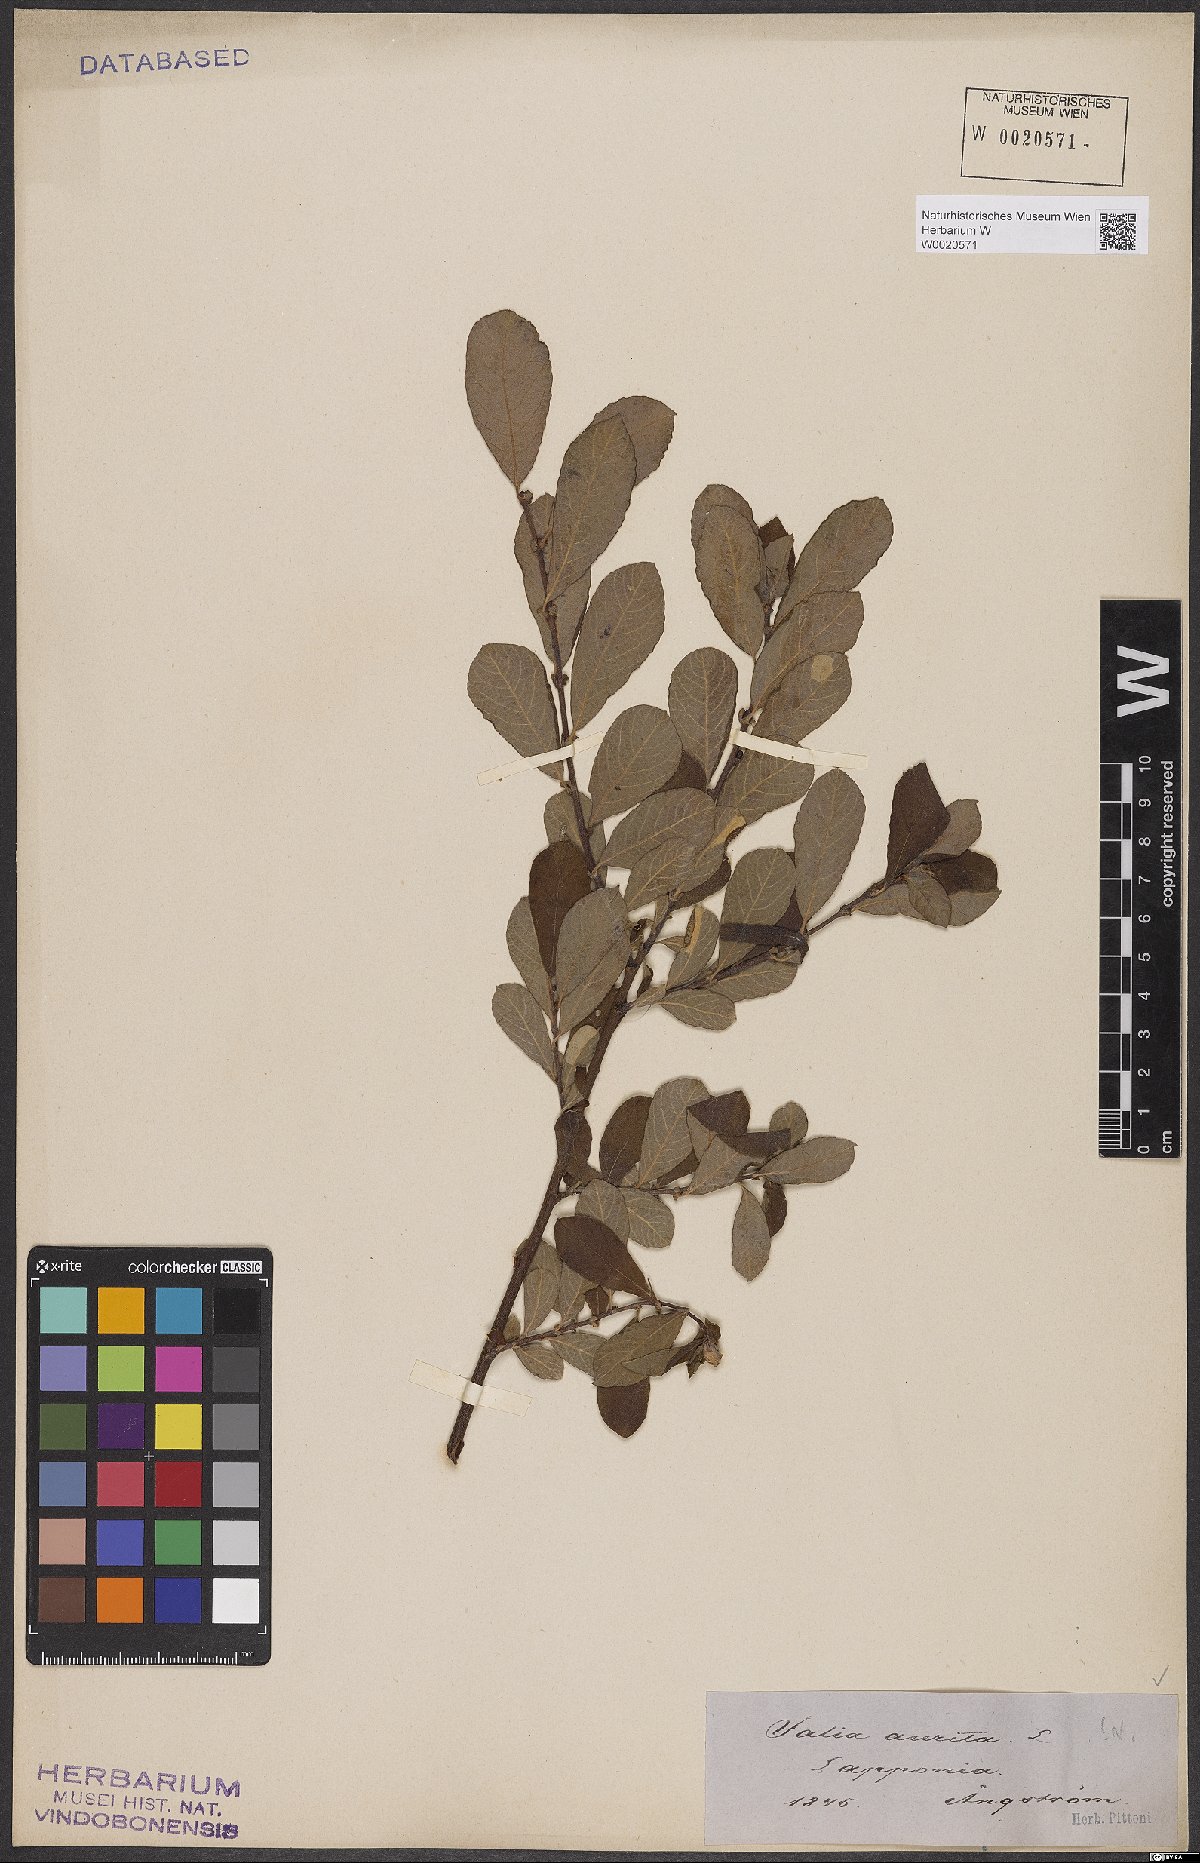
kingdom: Plantae
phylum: Tracheophyta
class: Magnoliopsida
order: Malpighiales
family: Salicaceae
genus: Salix
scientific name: Salix aurita
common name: Eared willow
